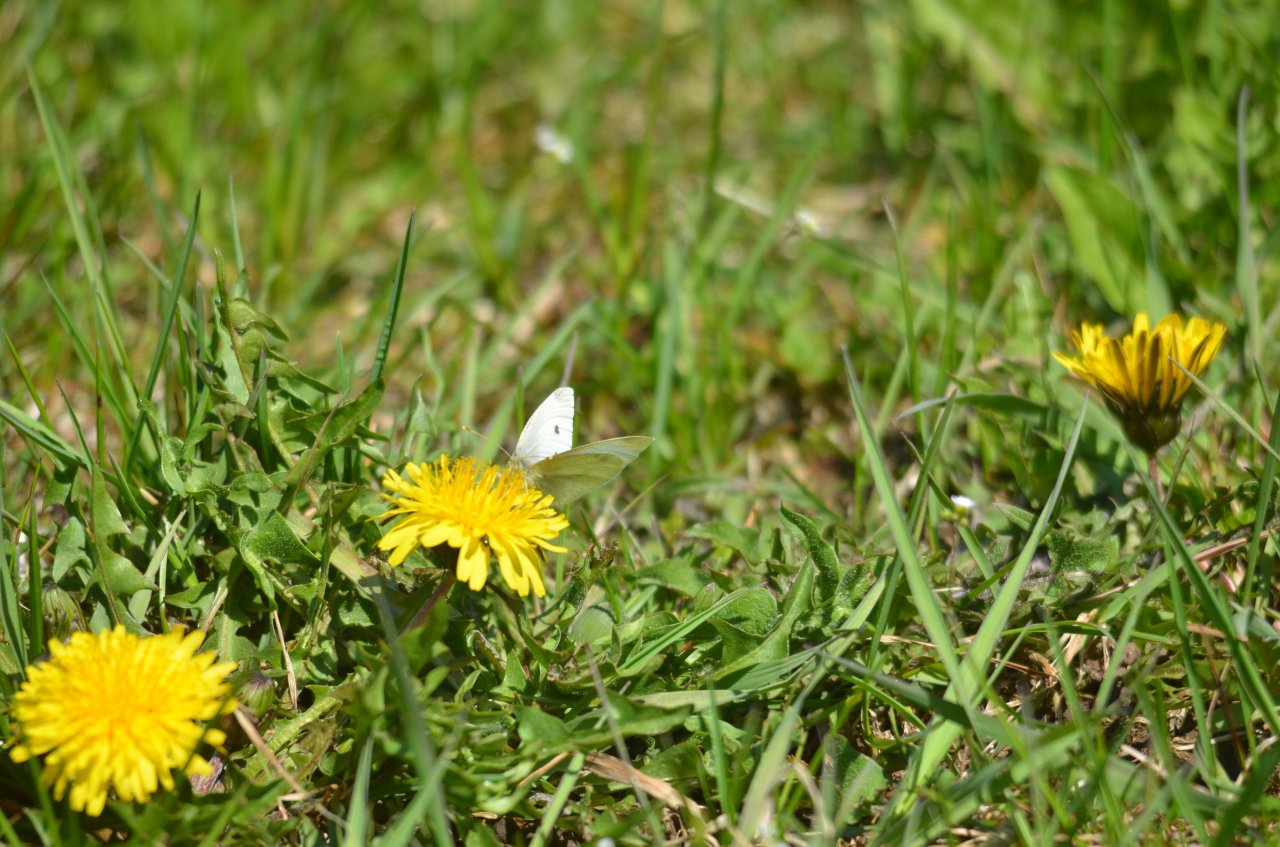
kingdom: Animalia
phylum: Arthropoda
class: Insecta
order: Lepidoptera
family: Pieridae
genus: Pieris
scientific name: Pieris rapae
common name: Cabbage White
